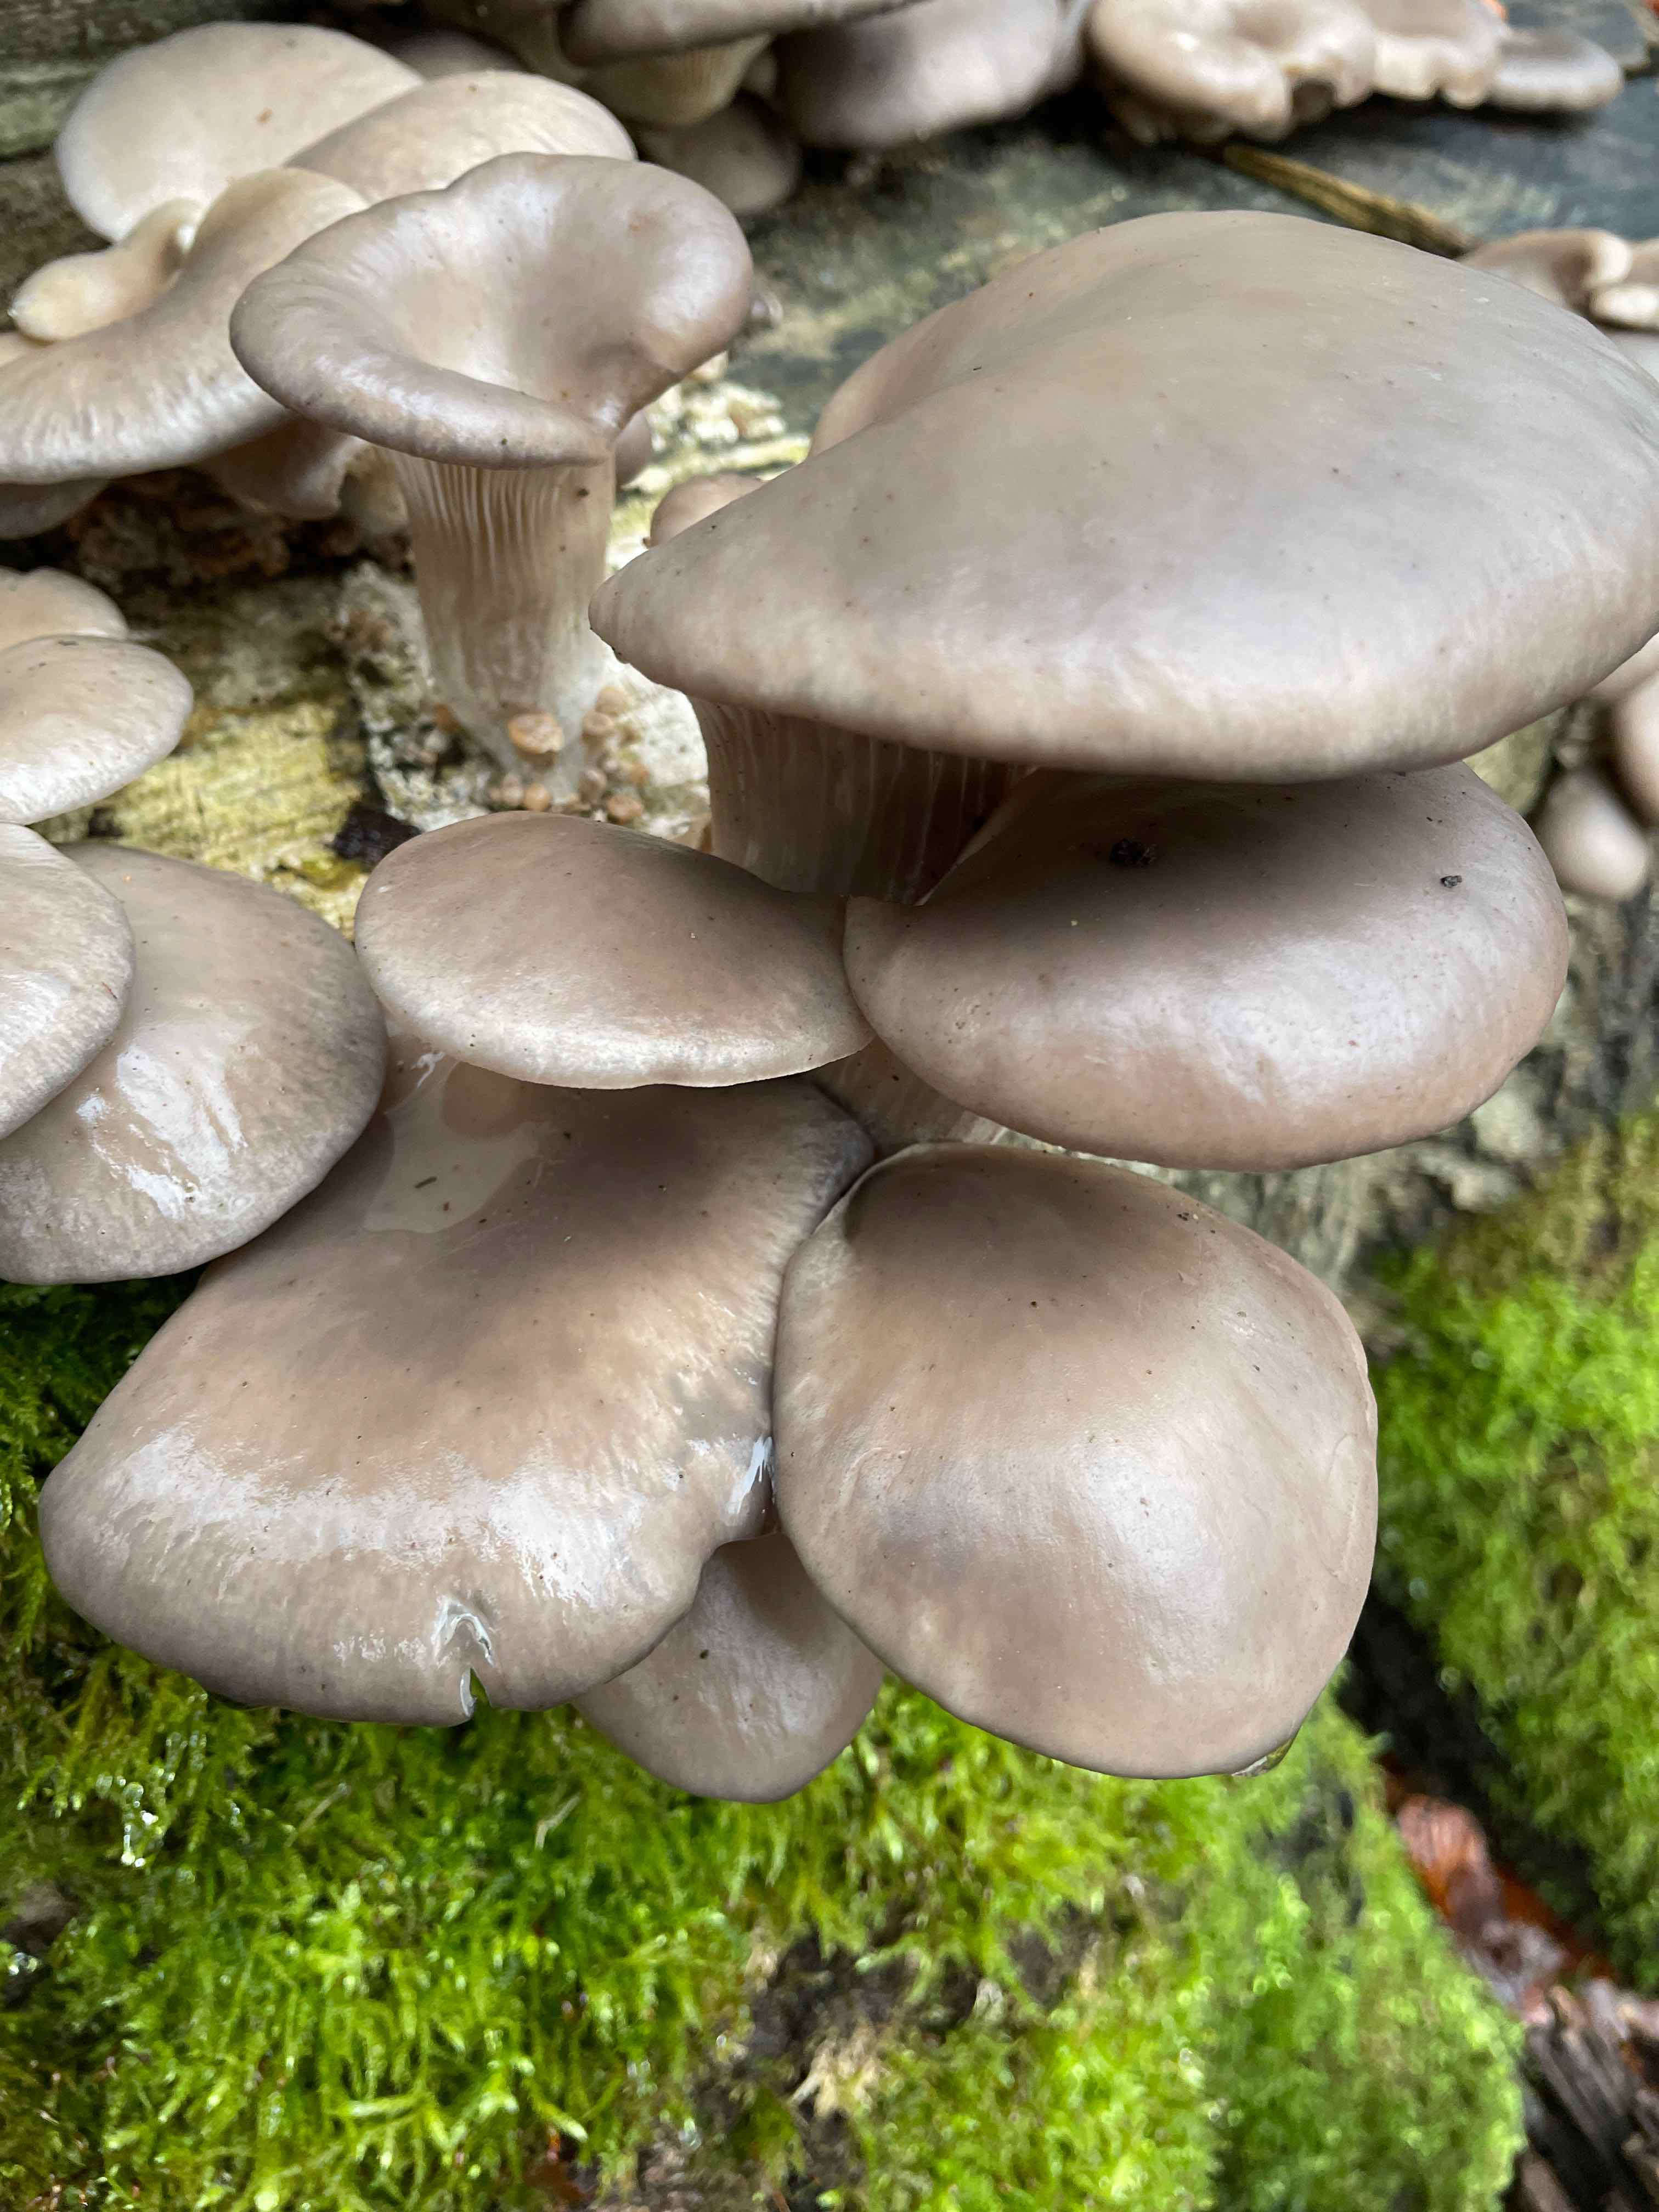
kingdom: Fungi
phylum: Basidiomycota
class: Agaricomycetes
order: Agaricales
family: Pleurotaceae
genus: Pleurotus
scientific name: Pleurotus ostreatus
